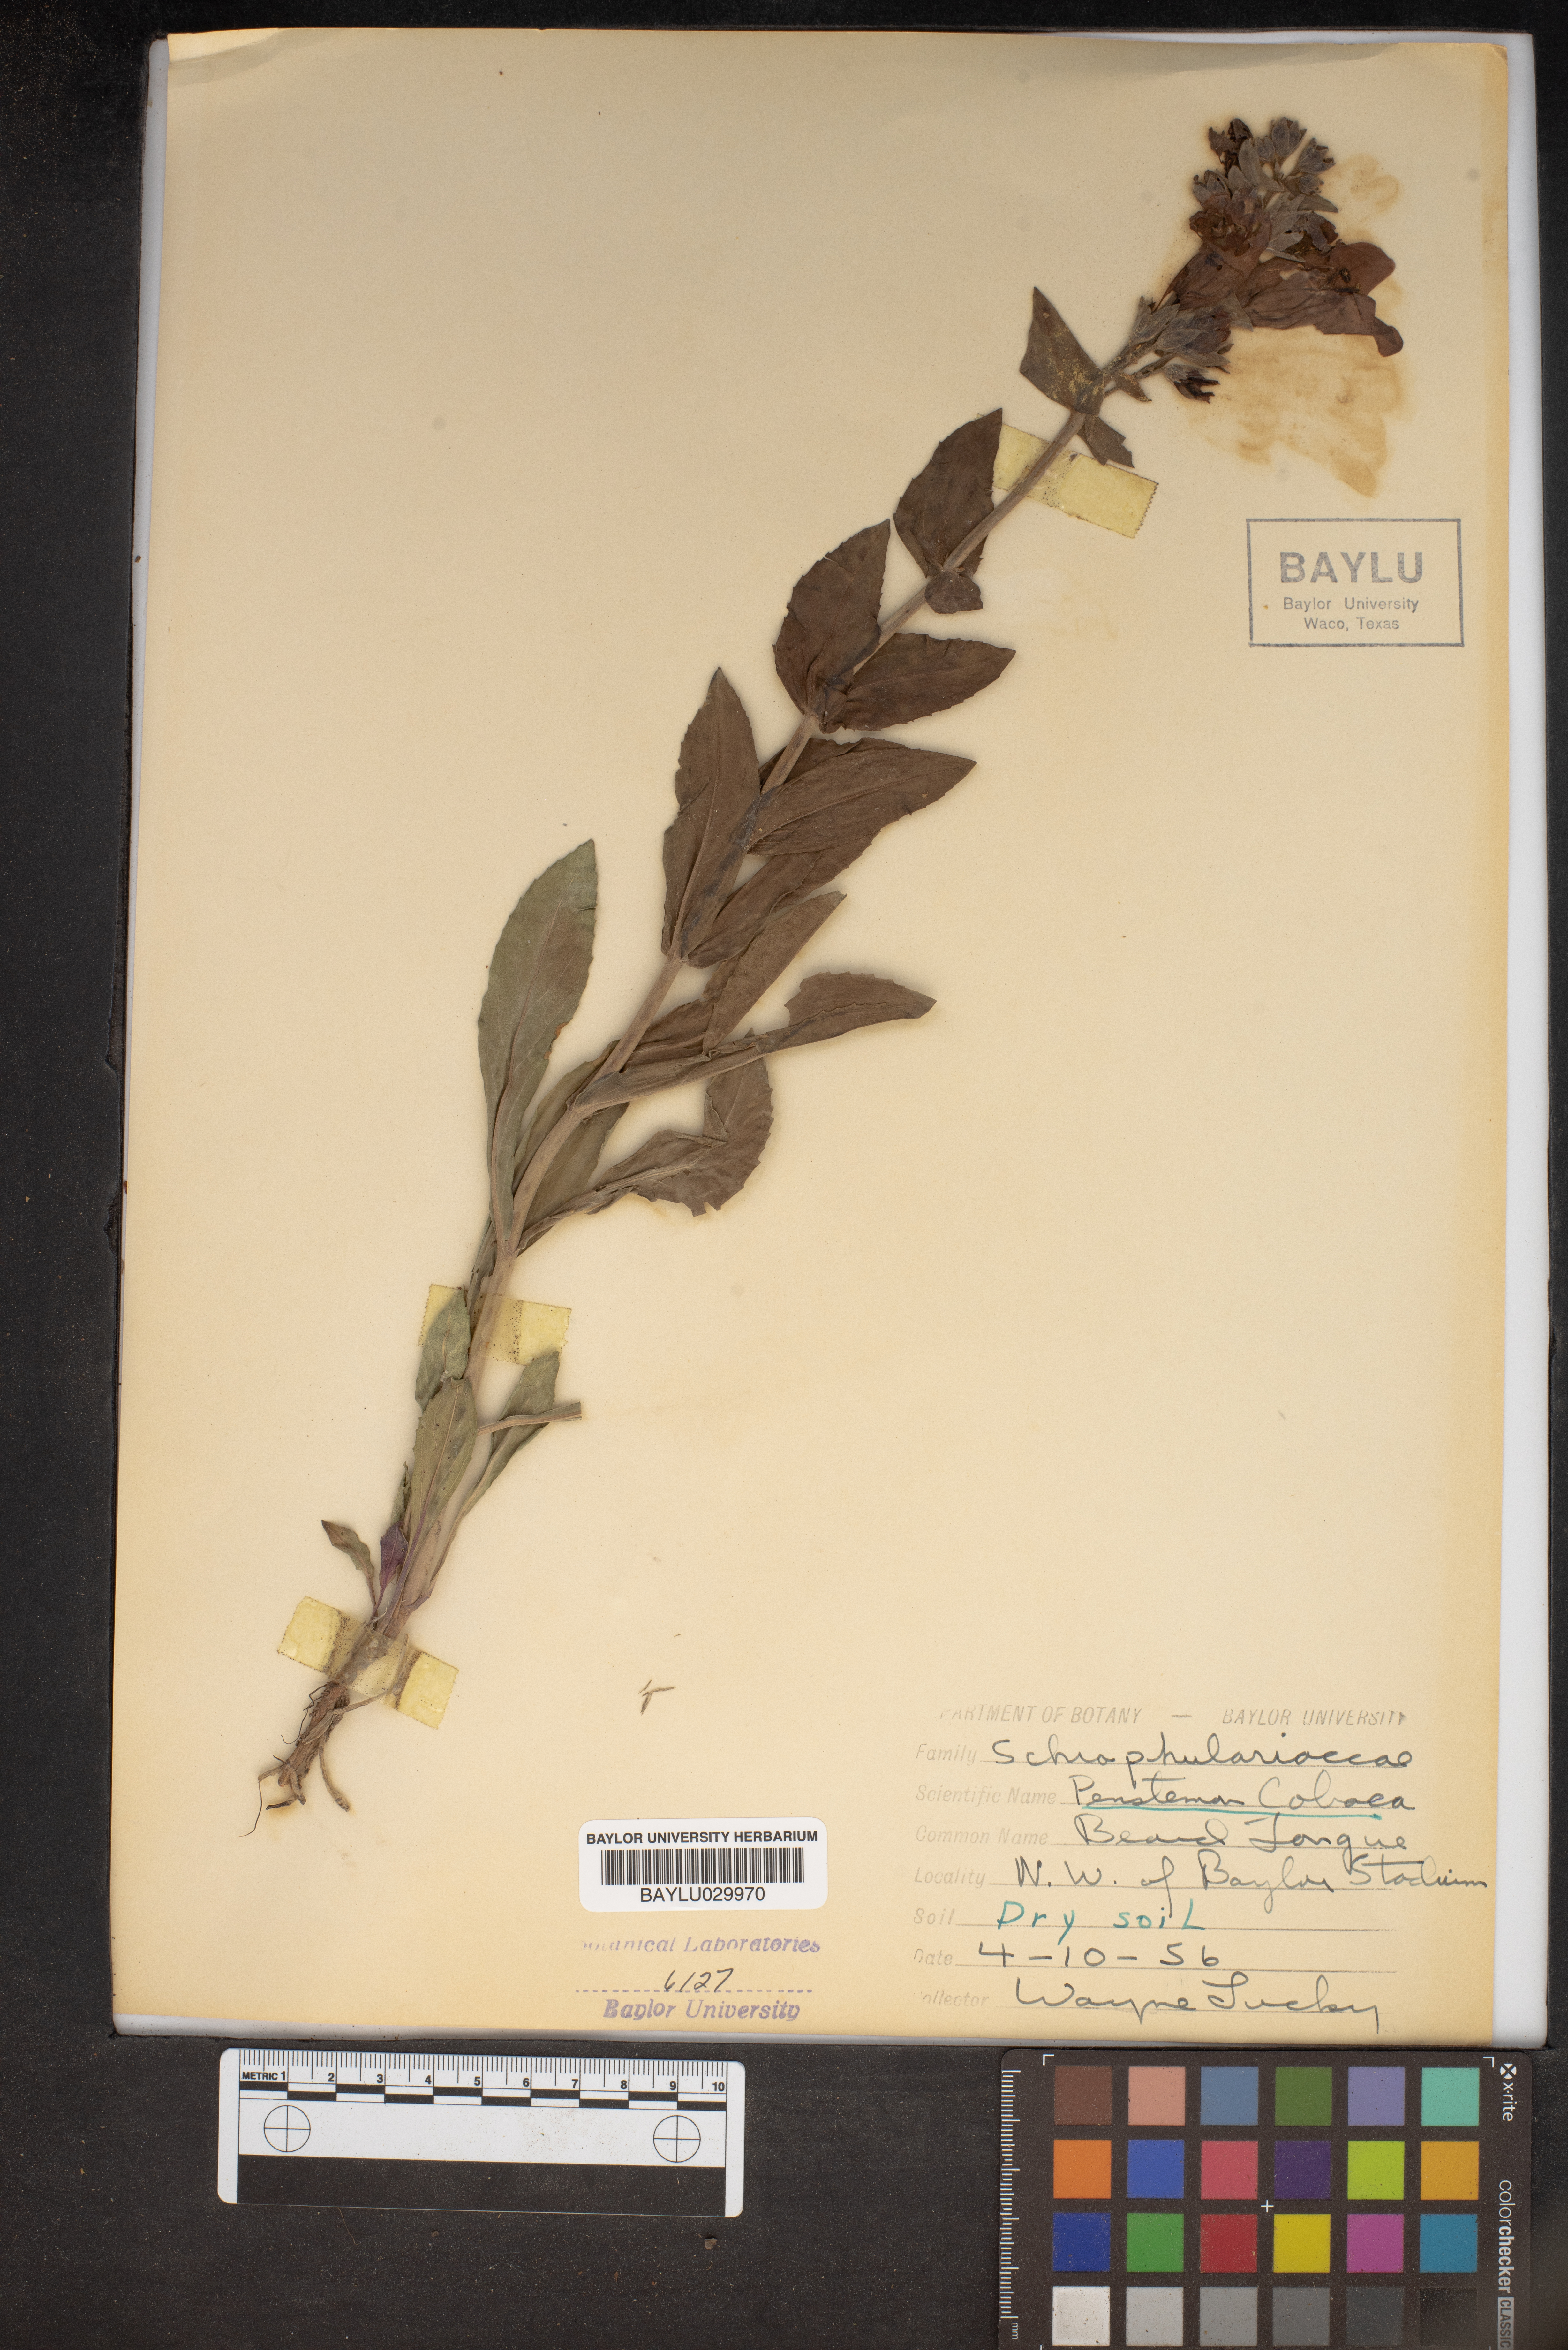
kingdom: Plantae
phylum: Tracheophyta
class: Magnoliopsida
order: Lamiales
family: Plantaginaceae
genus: Penstemon
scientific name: Penstemon cobaea
